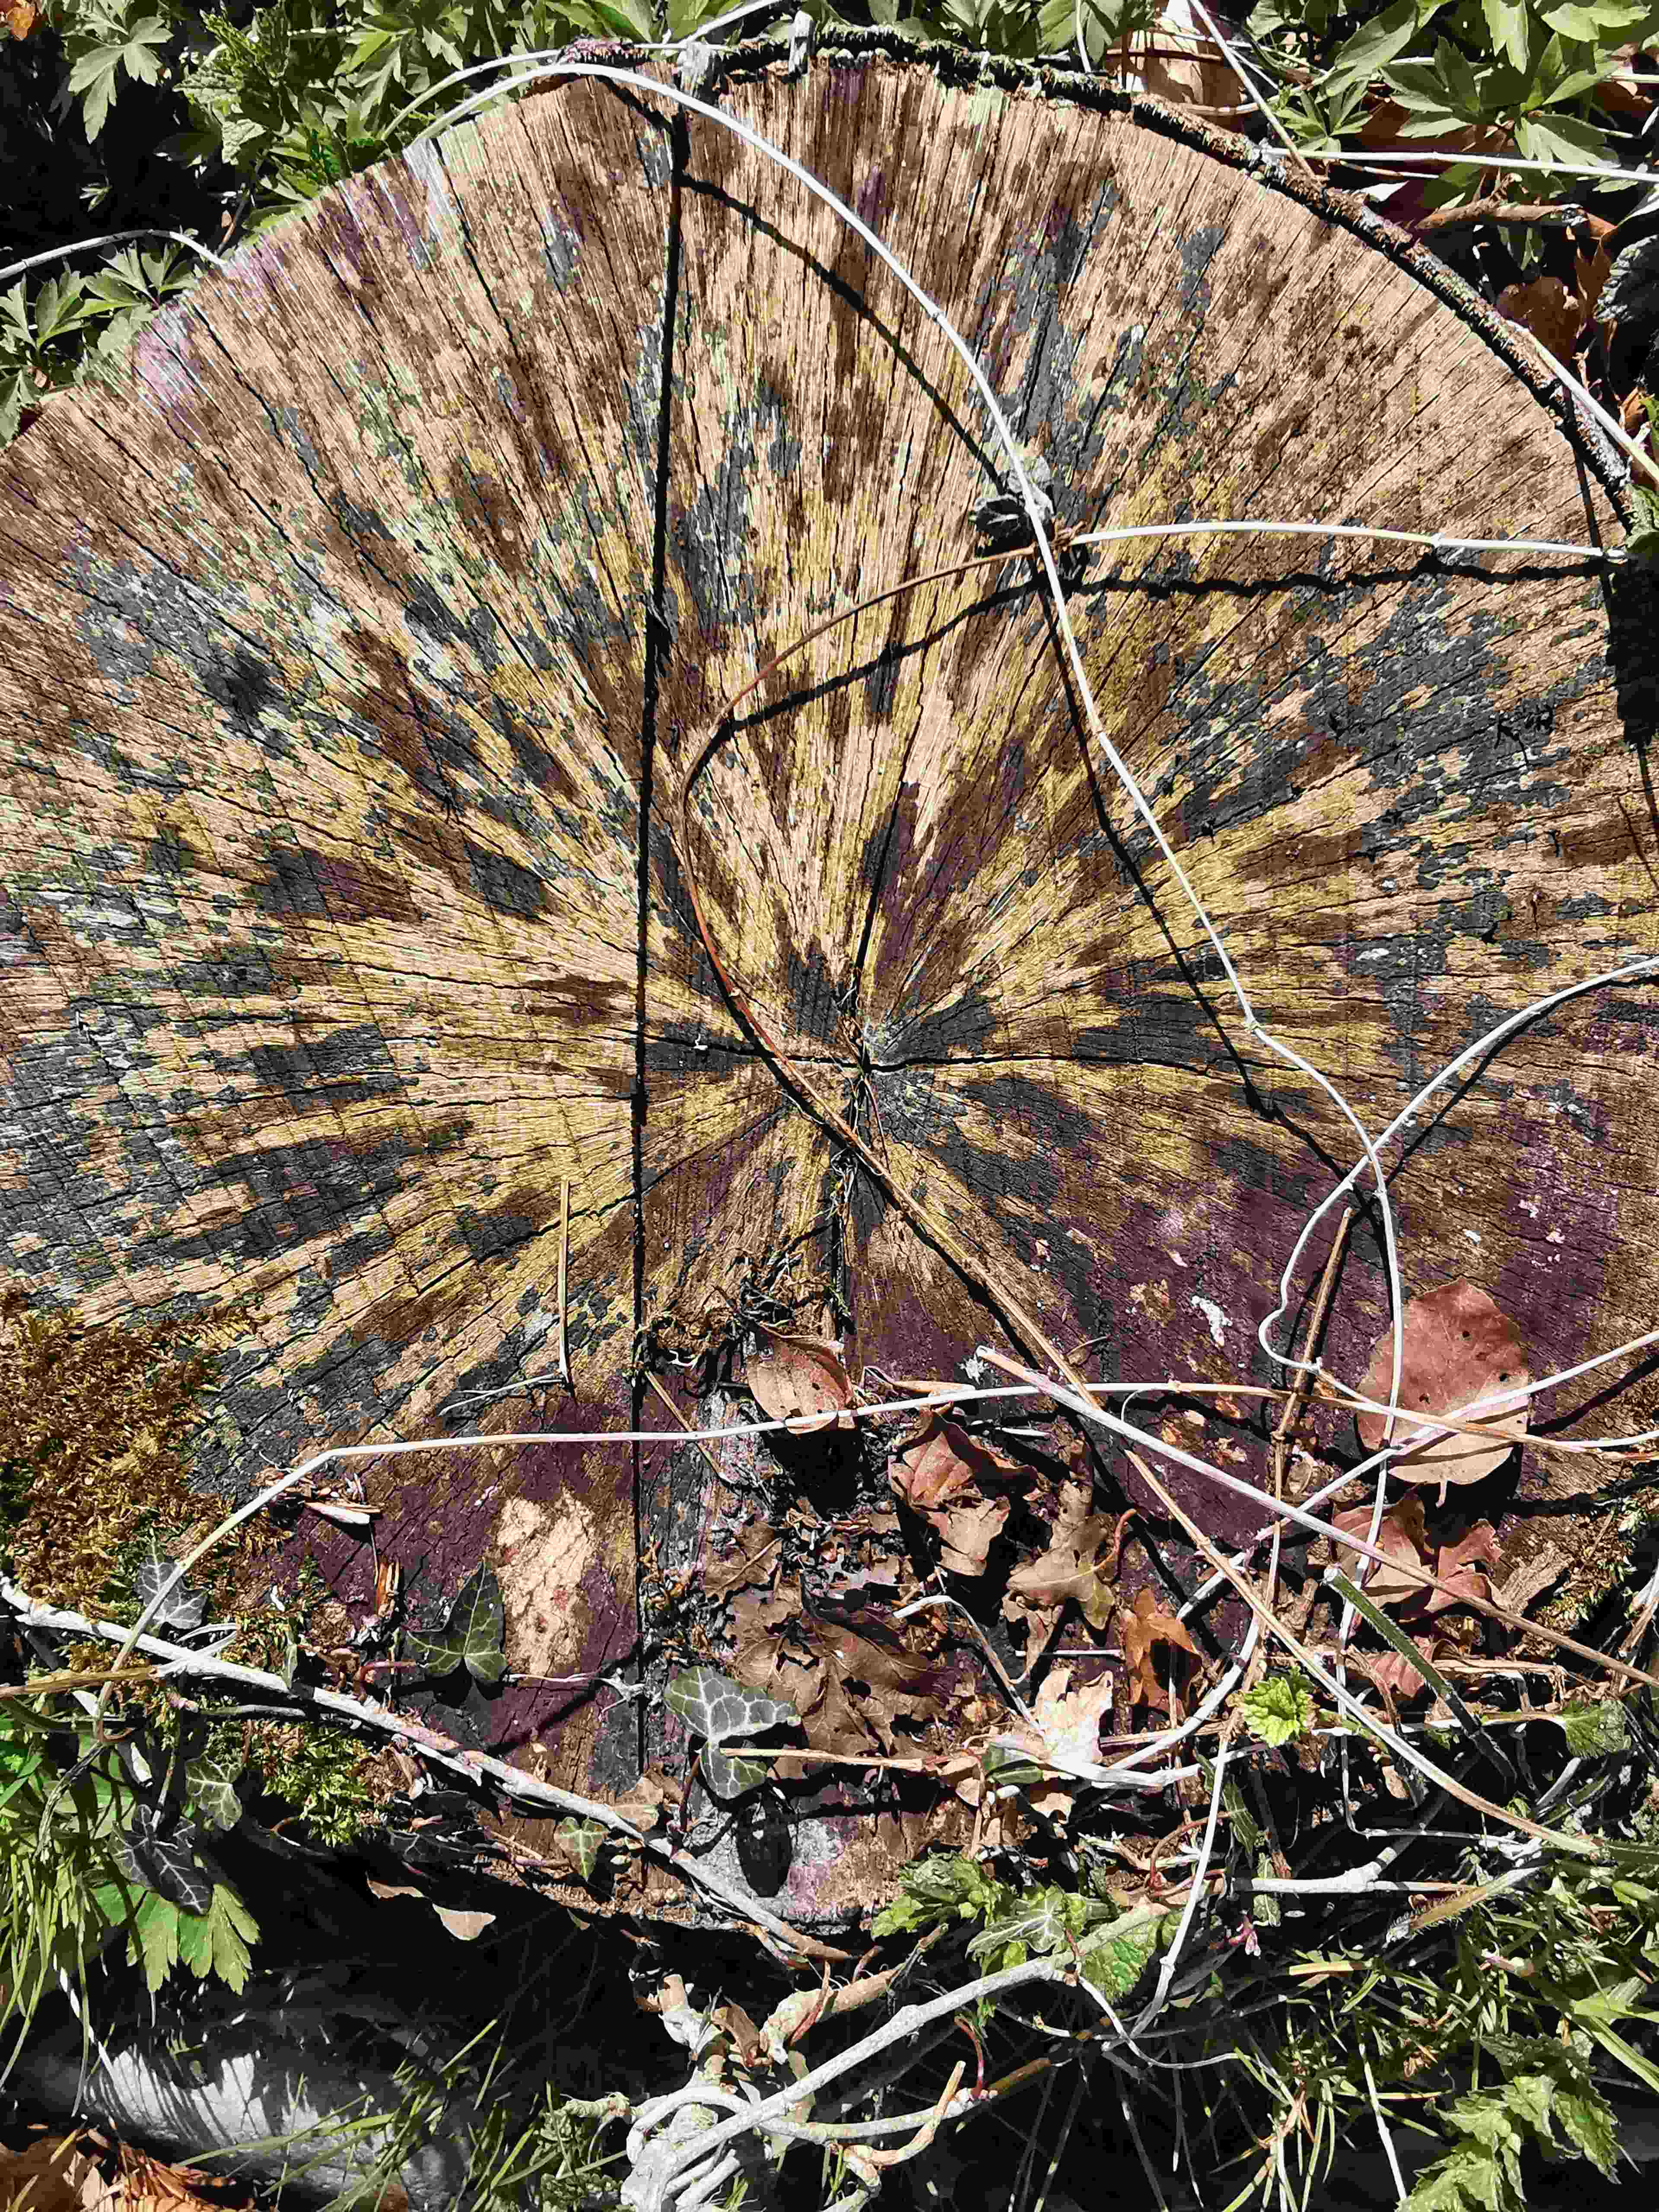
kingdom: Fungi
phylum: Ascomycota
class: Leotiomycetes
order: Helotiales
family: Helotiaceae
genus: Bispora
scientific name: Bispora pallescens
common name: måtte-snitskive
